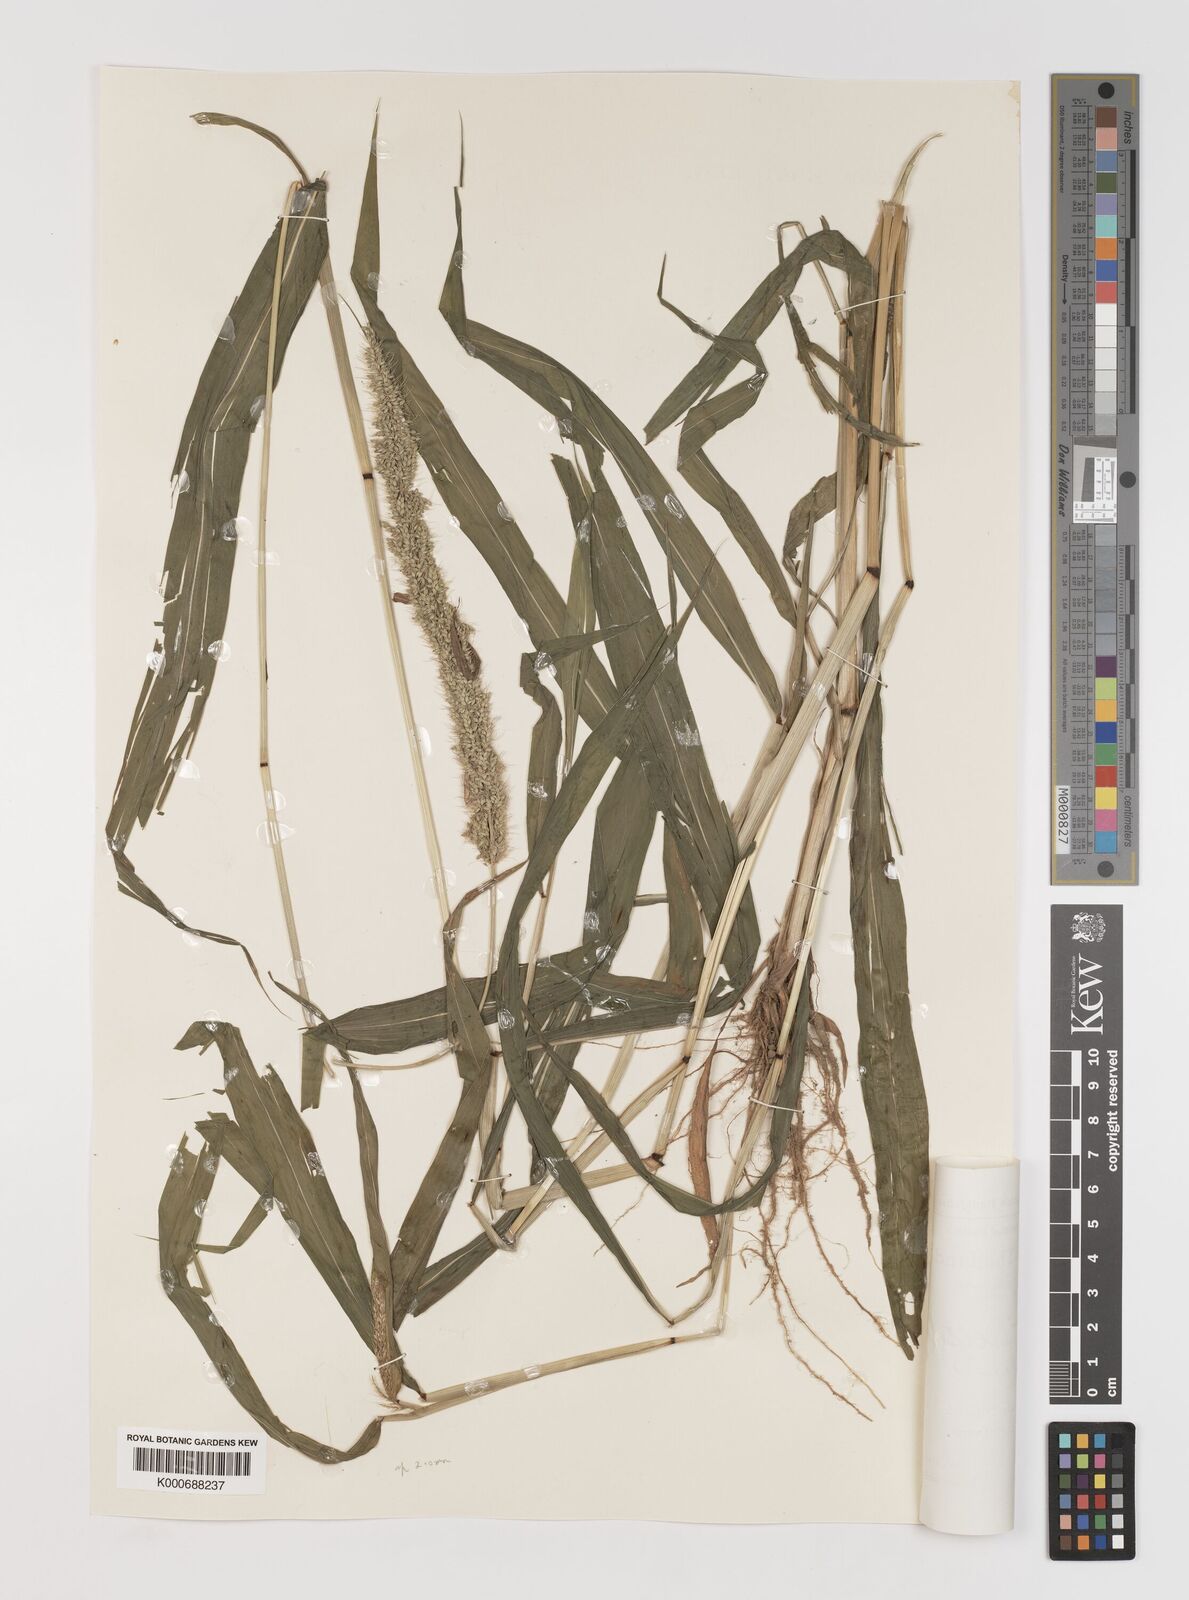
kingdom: Plantae
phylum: Tracheophyta
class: Liliopsida
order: Poales
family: Poaceae
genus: Setaria
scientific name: Setaria verticillata
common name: Hooked bristlegrass
